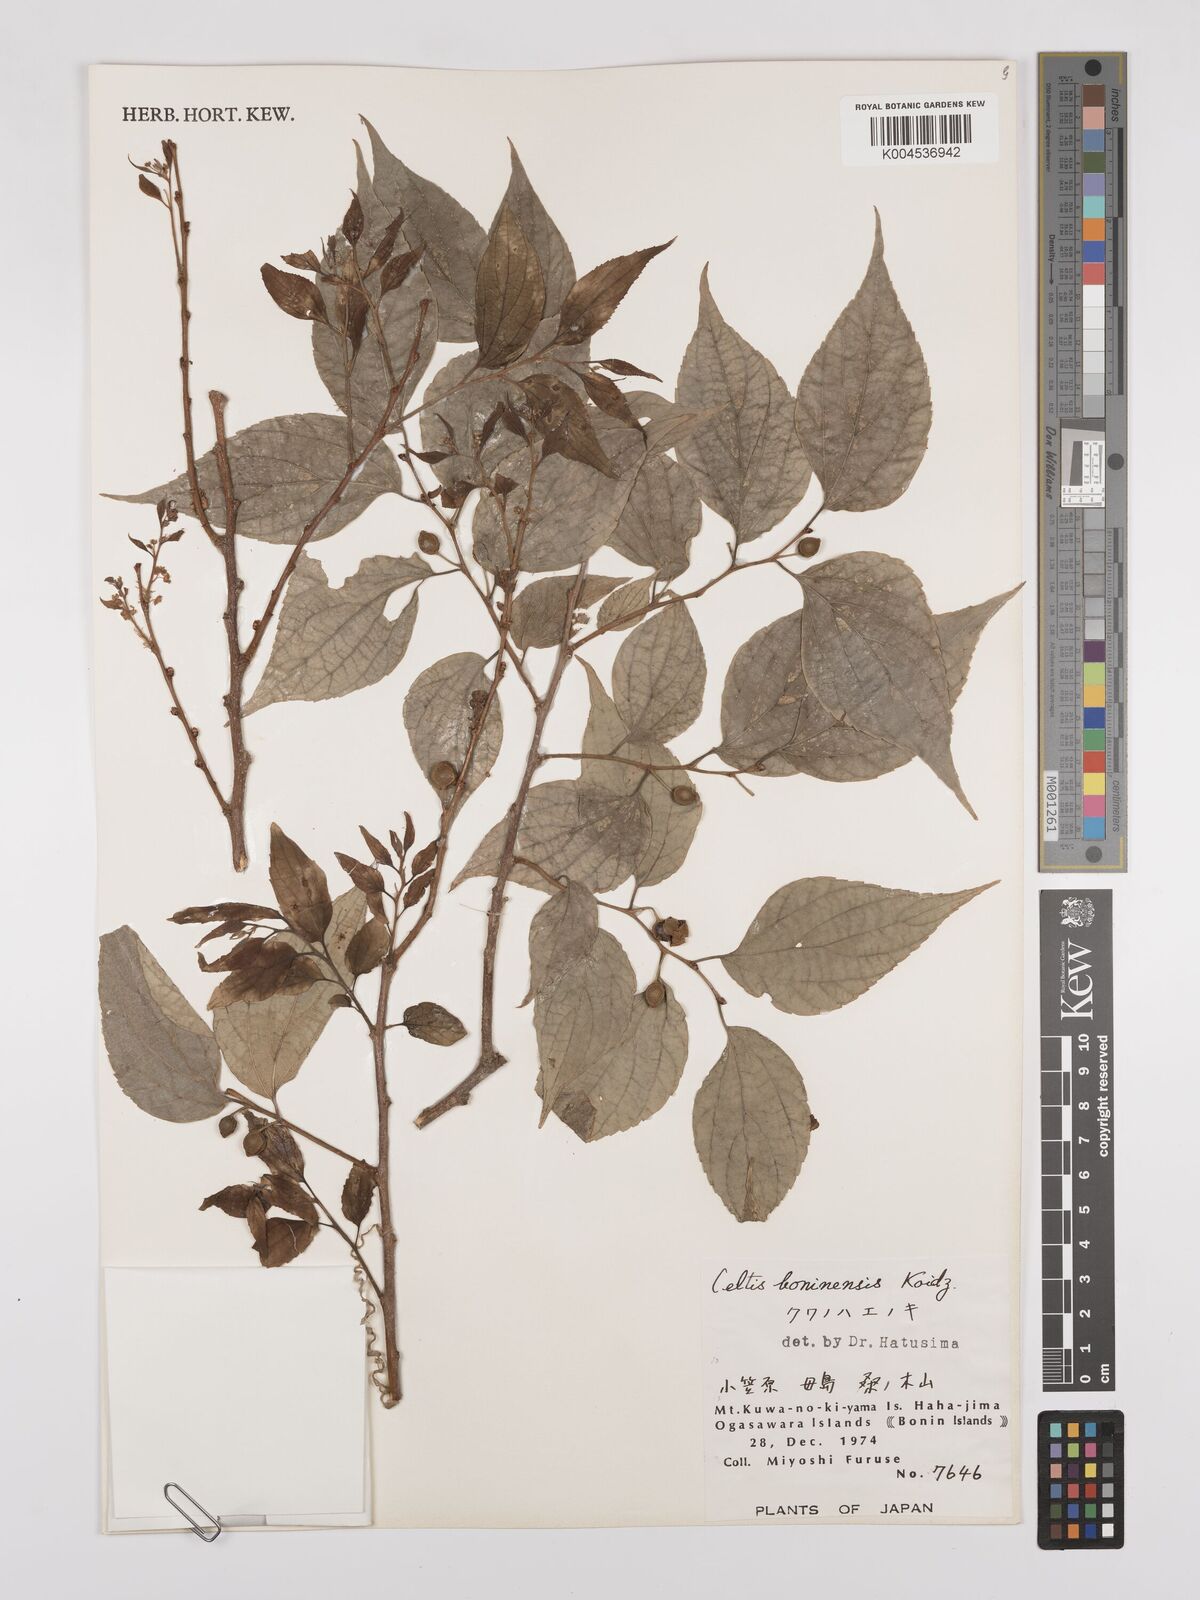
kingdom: Plantae
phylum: Tracheophyta
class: Magnoliopsida
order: Rosales
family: Cannabaceae
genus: Celtis
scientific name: Celtis boninensis
